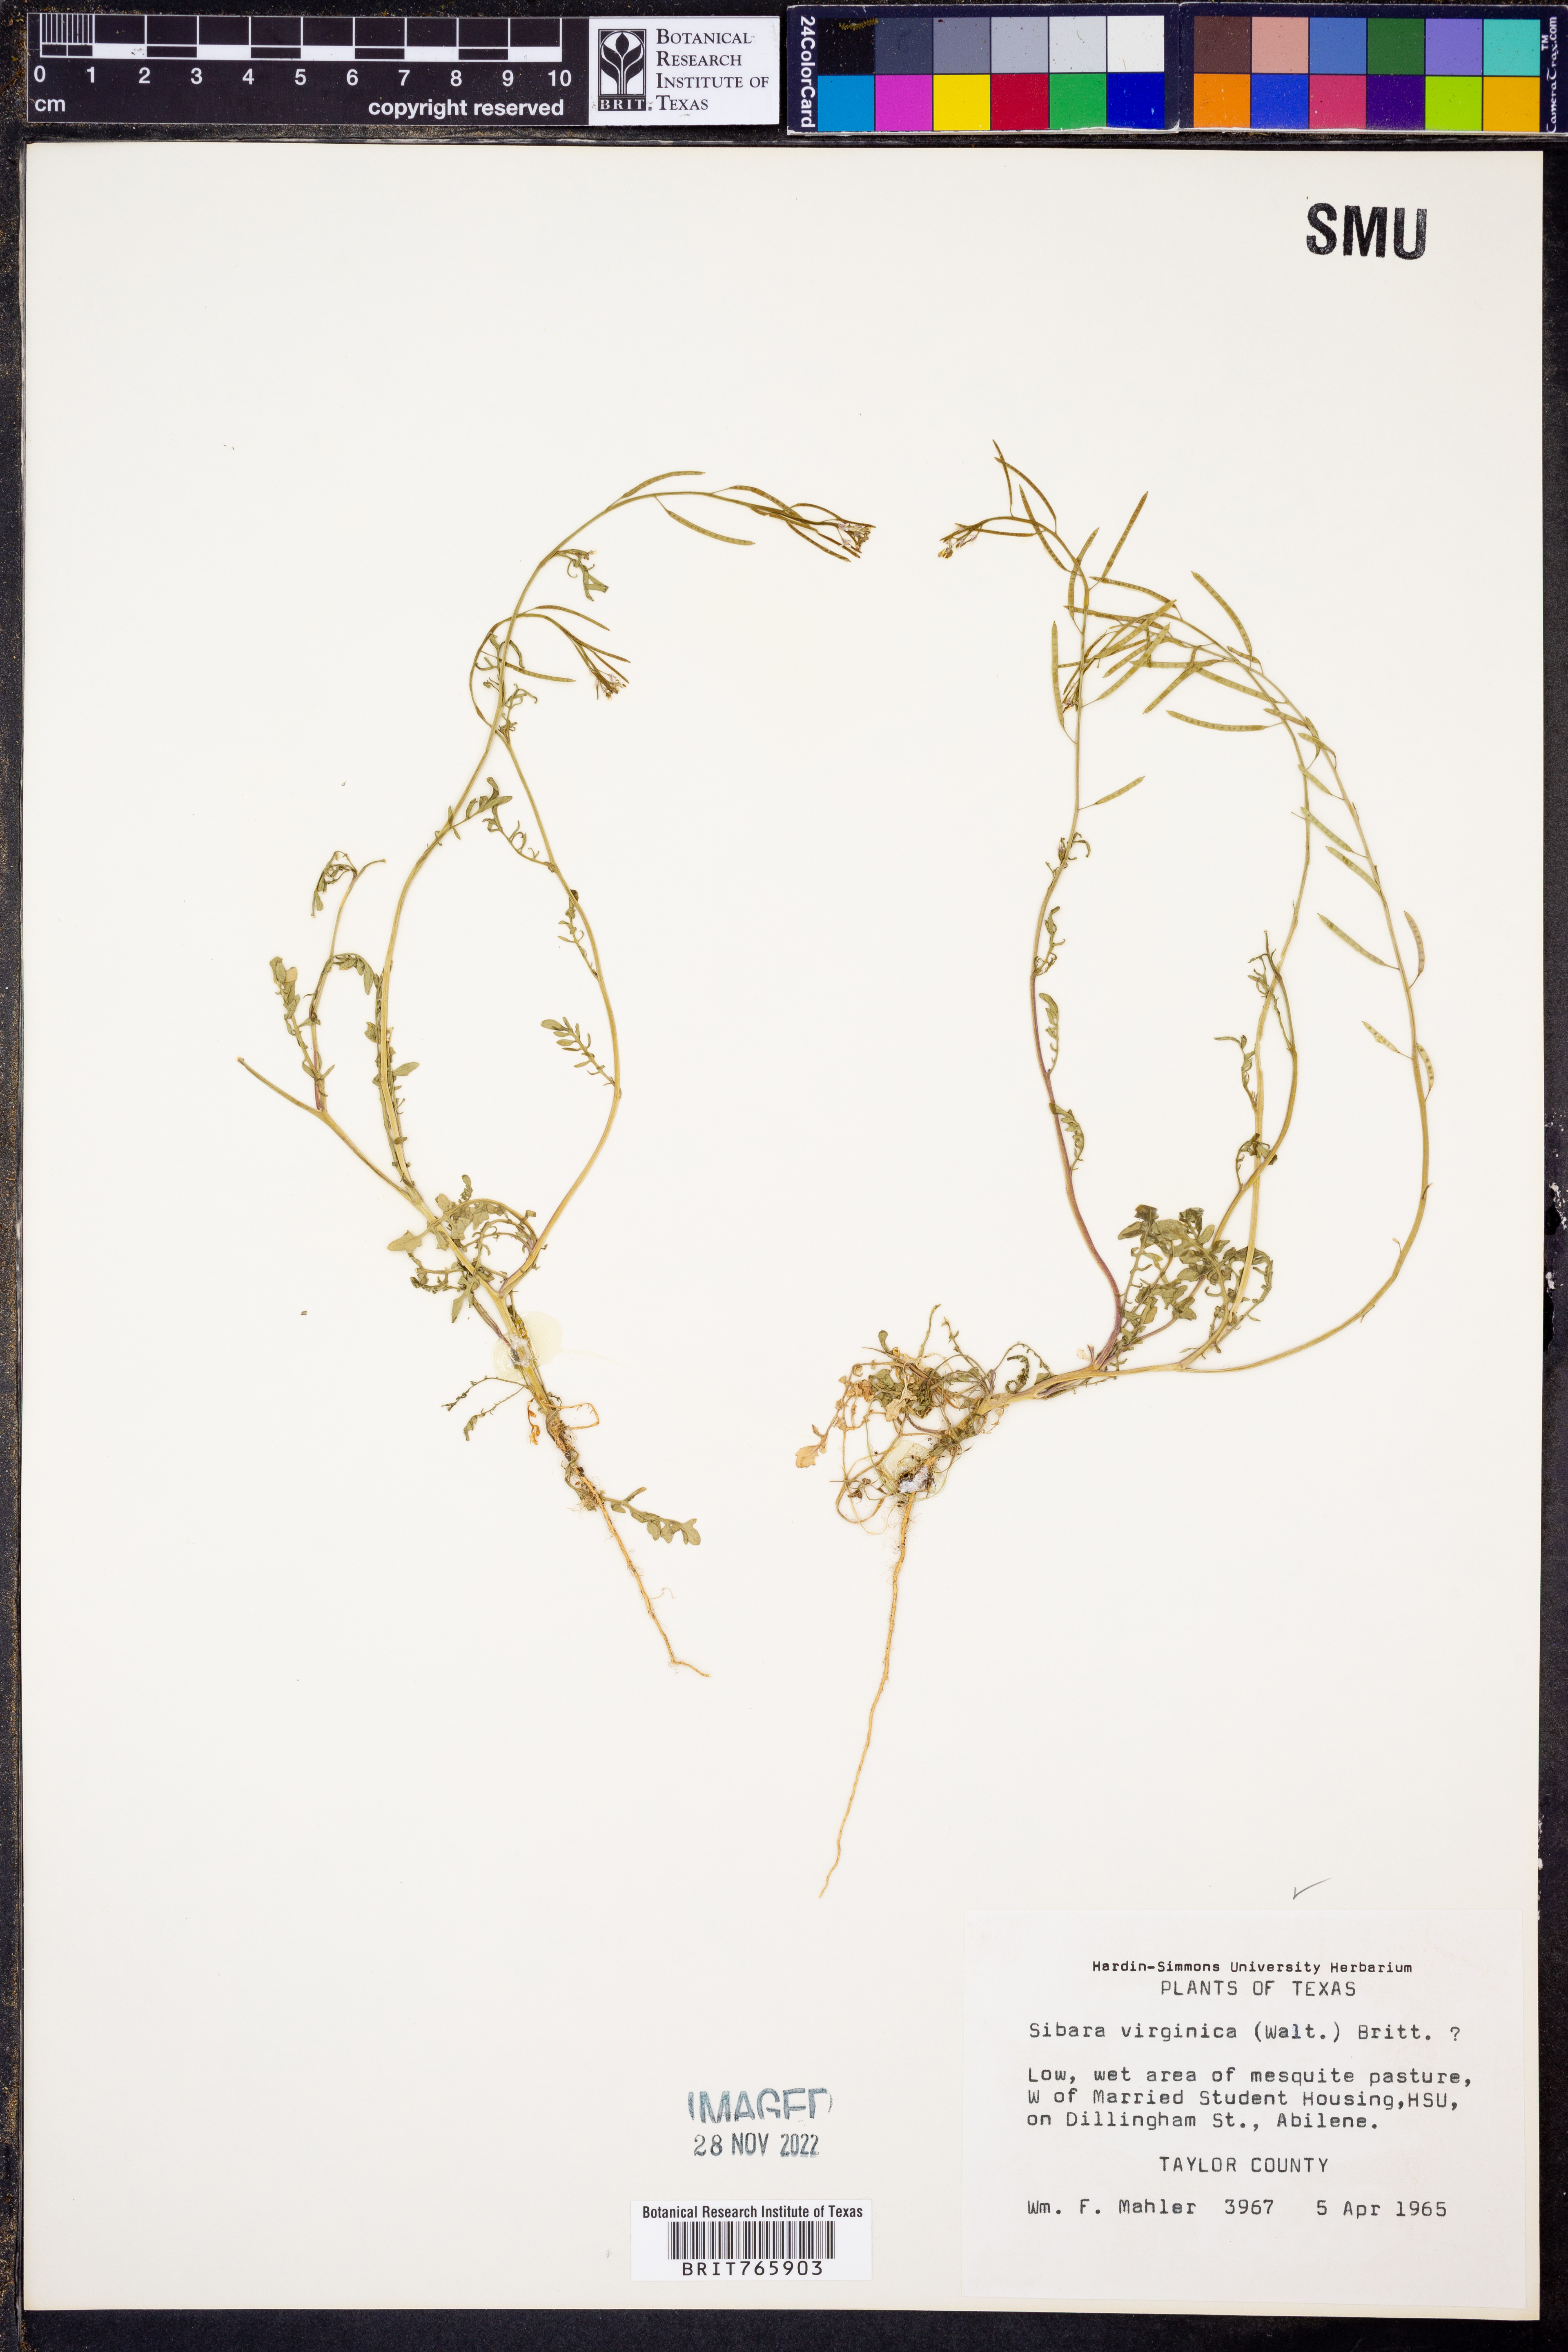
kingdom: Plantae
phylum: Tracheophyta
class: Magnoliopsida
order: Brassicales
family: Brassicaceae
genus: Planodes
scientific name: Planodes virginicum
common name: Virginia cress
